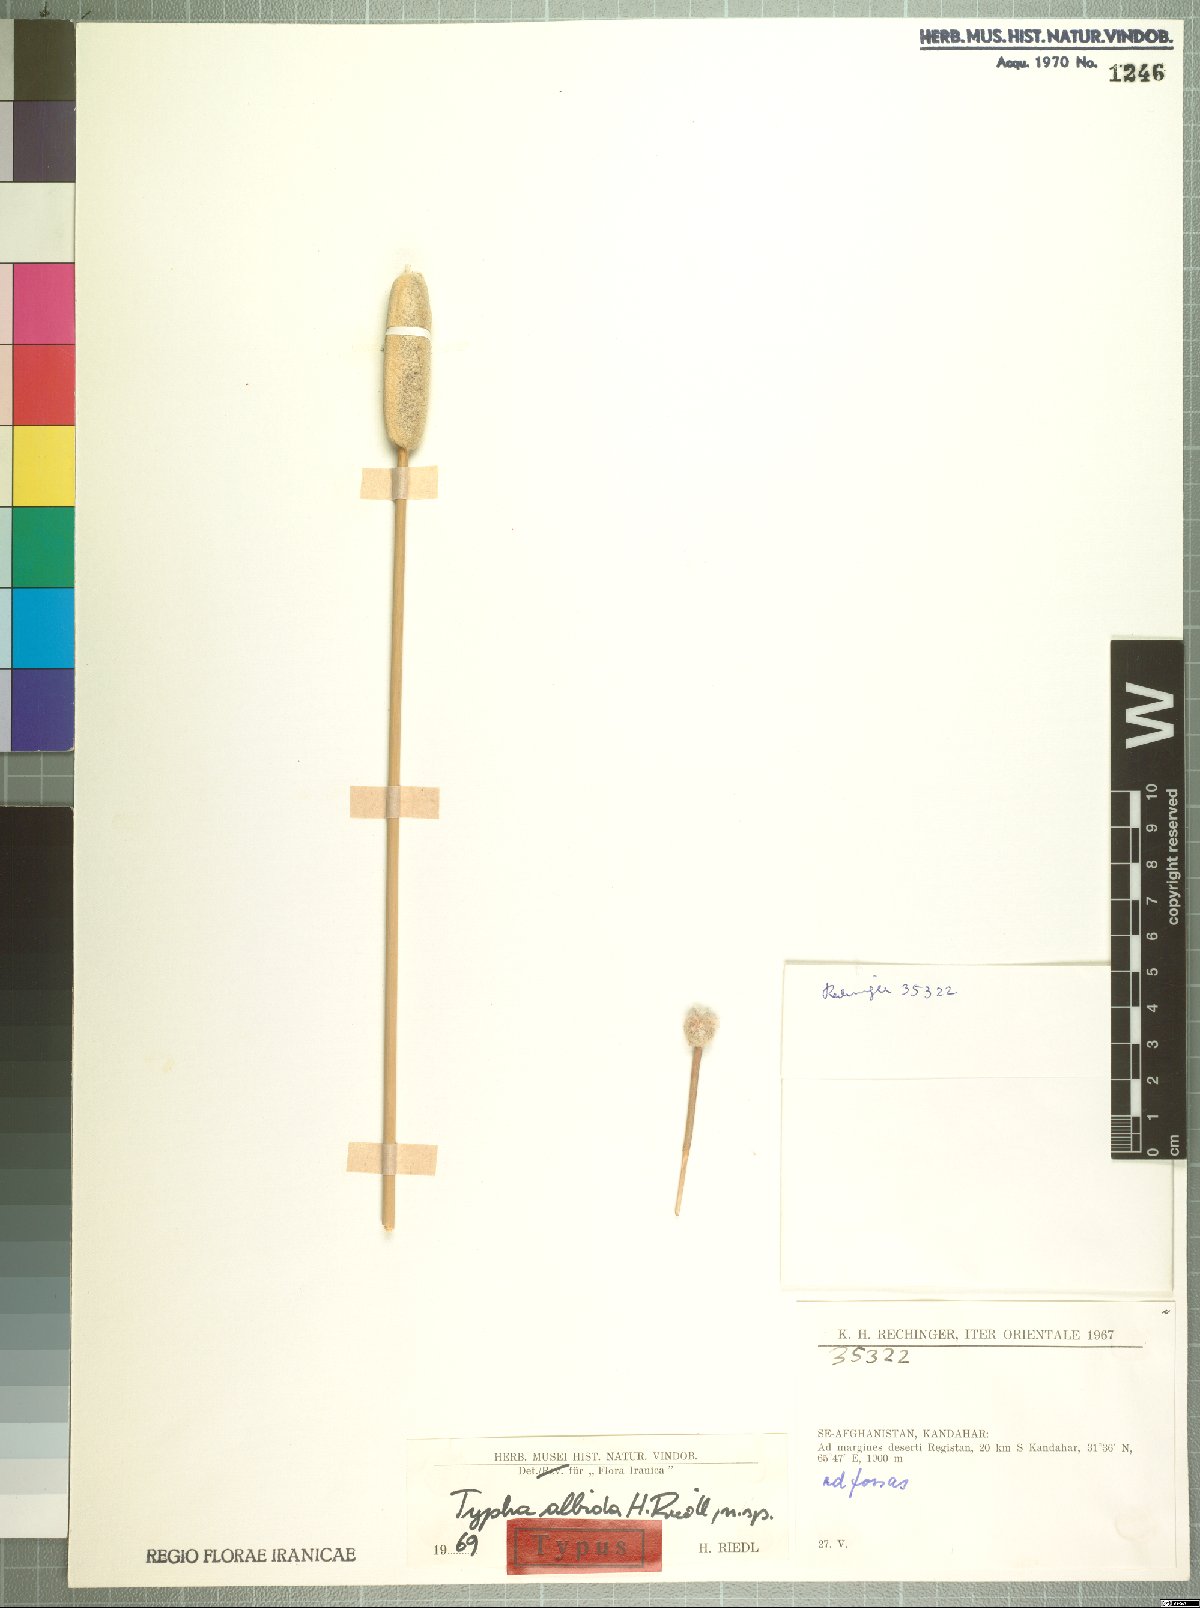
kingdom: Plantae
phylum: Tracheophyta
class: Liliopsida
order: Poales
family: Typhaceae
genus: Typha
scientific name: Typha albida
